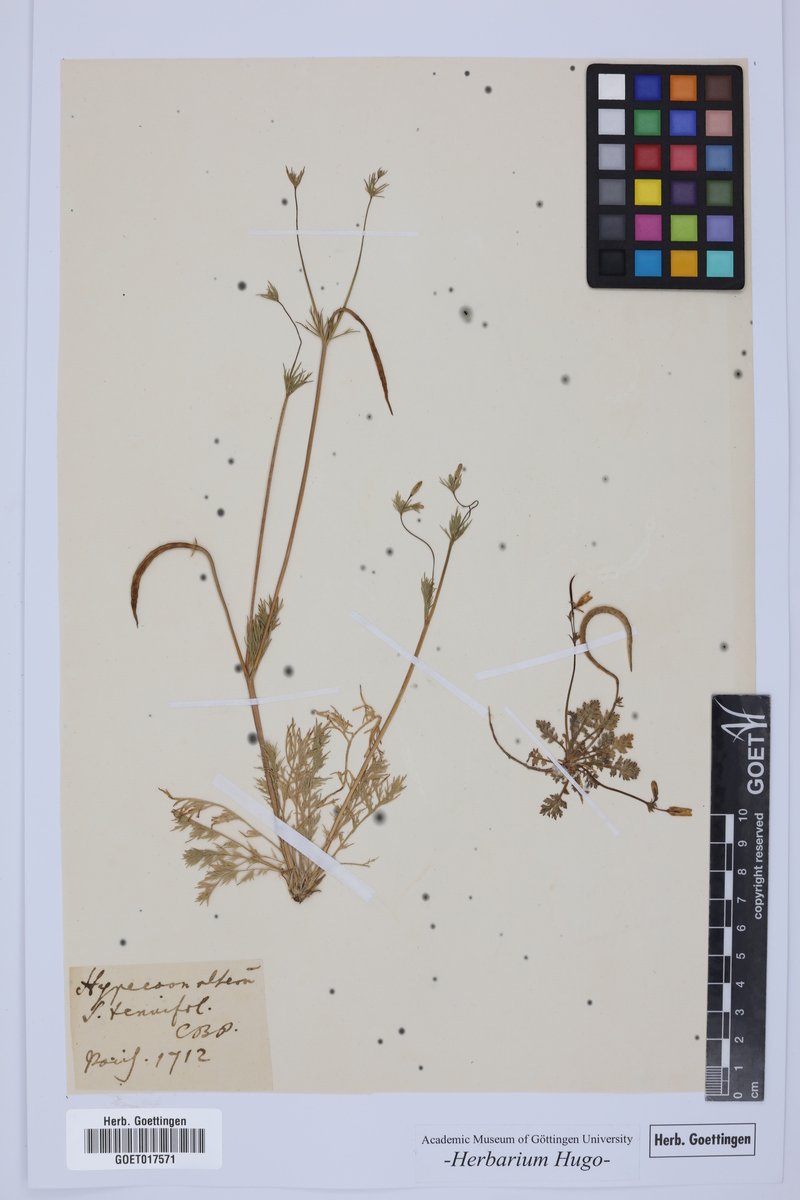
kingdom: Plantae
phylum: Tracheophyta
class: Magnoliopsida
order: Ranunculales
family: Papaveraceae
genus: Hypecoum
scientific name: Hypecoum
